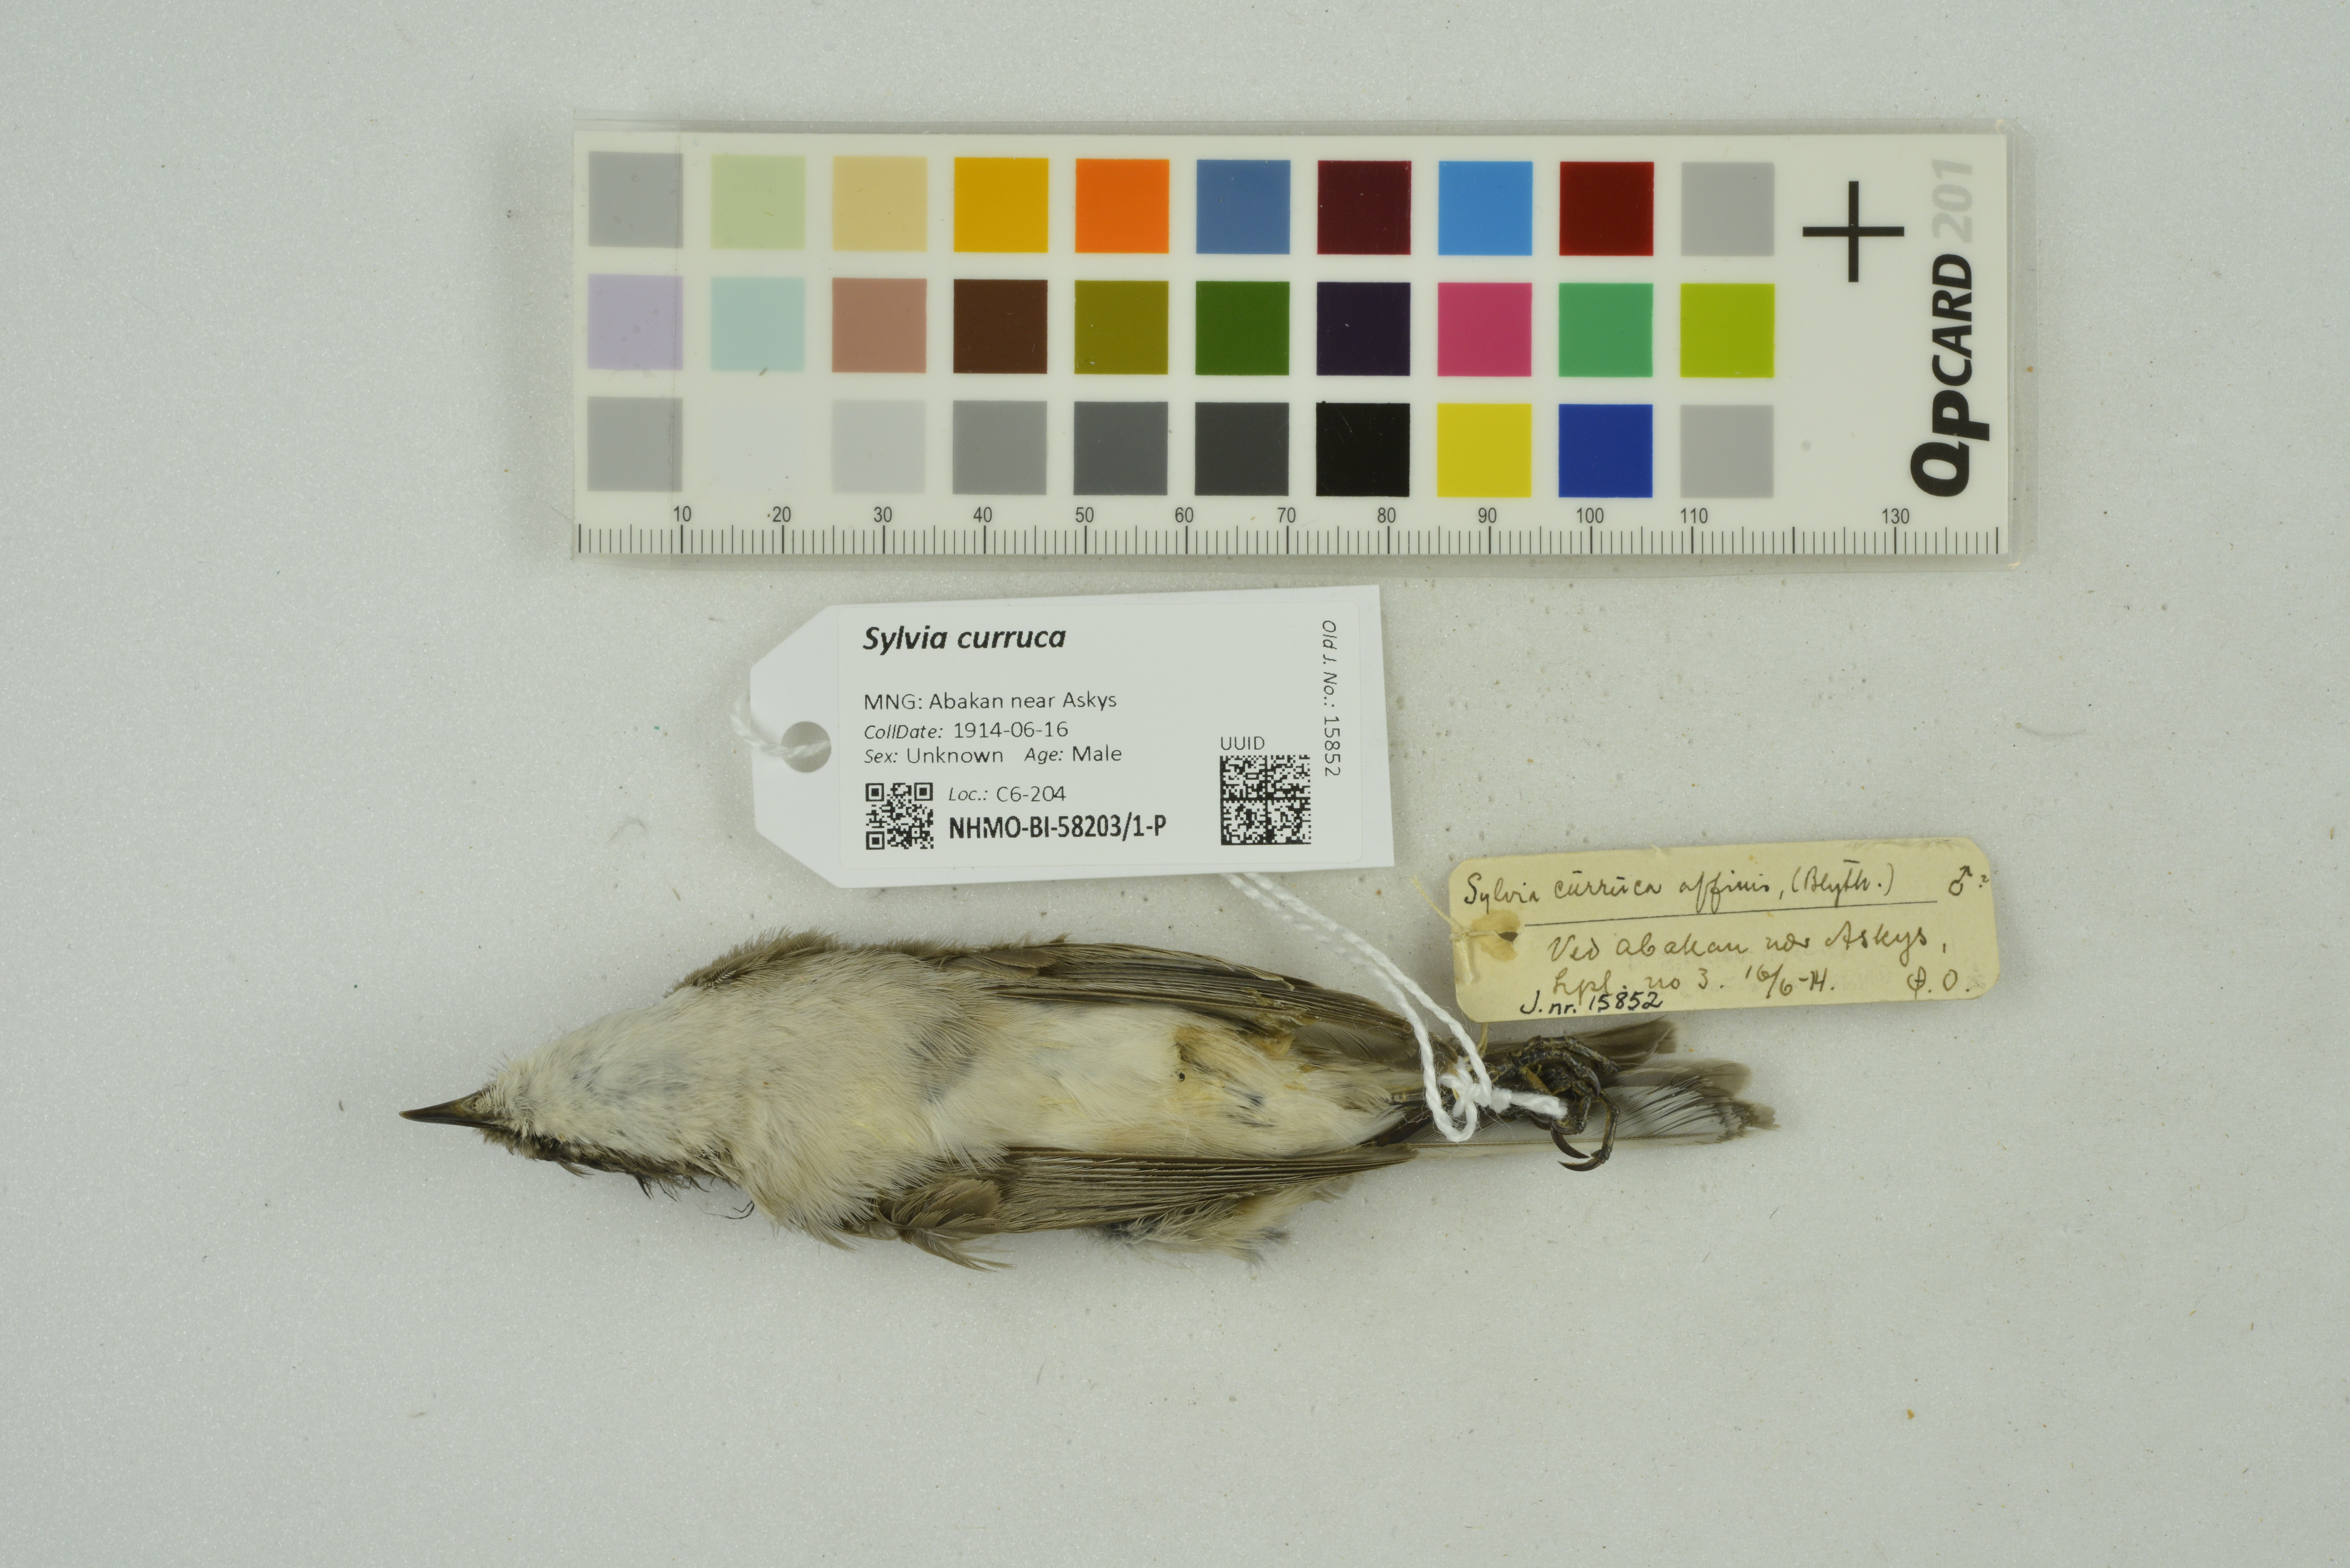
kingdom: Animalia
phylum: Chordata
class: Aves
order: Passeriformes
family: Sylviidae
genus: Sylvia
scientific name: Sylvia curruca
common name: Lesser whitethroat
